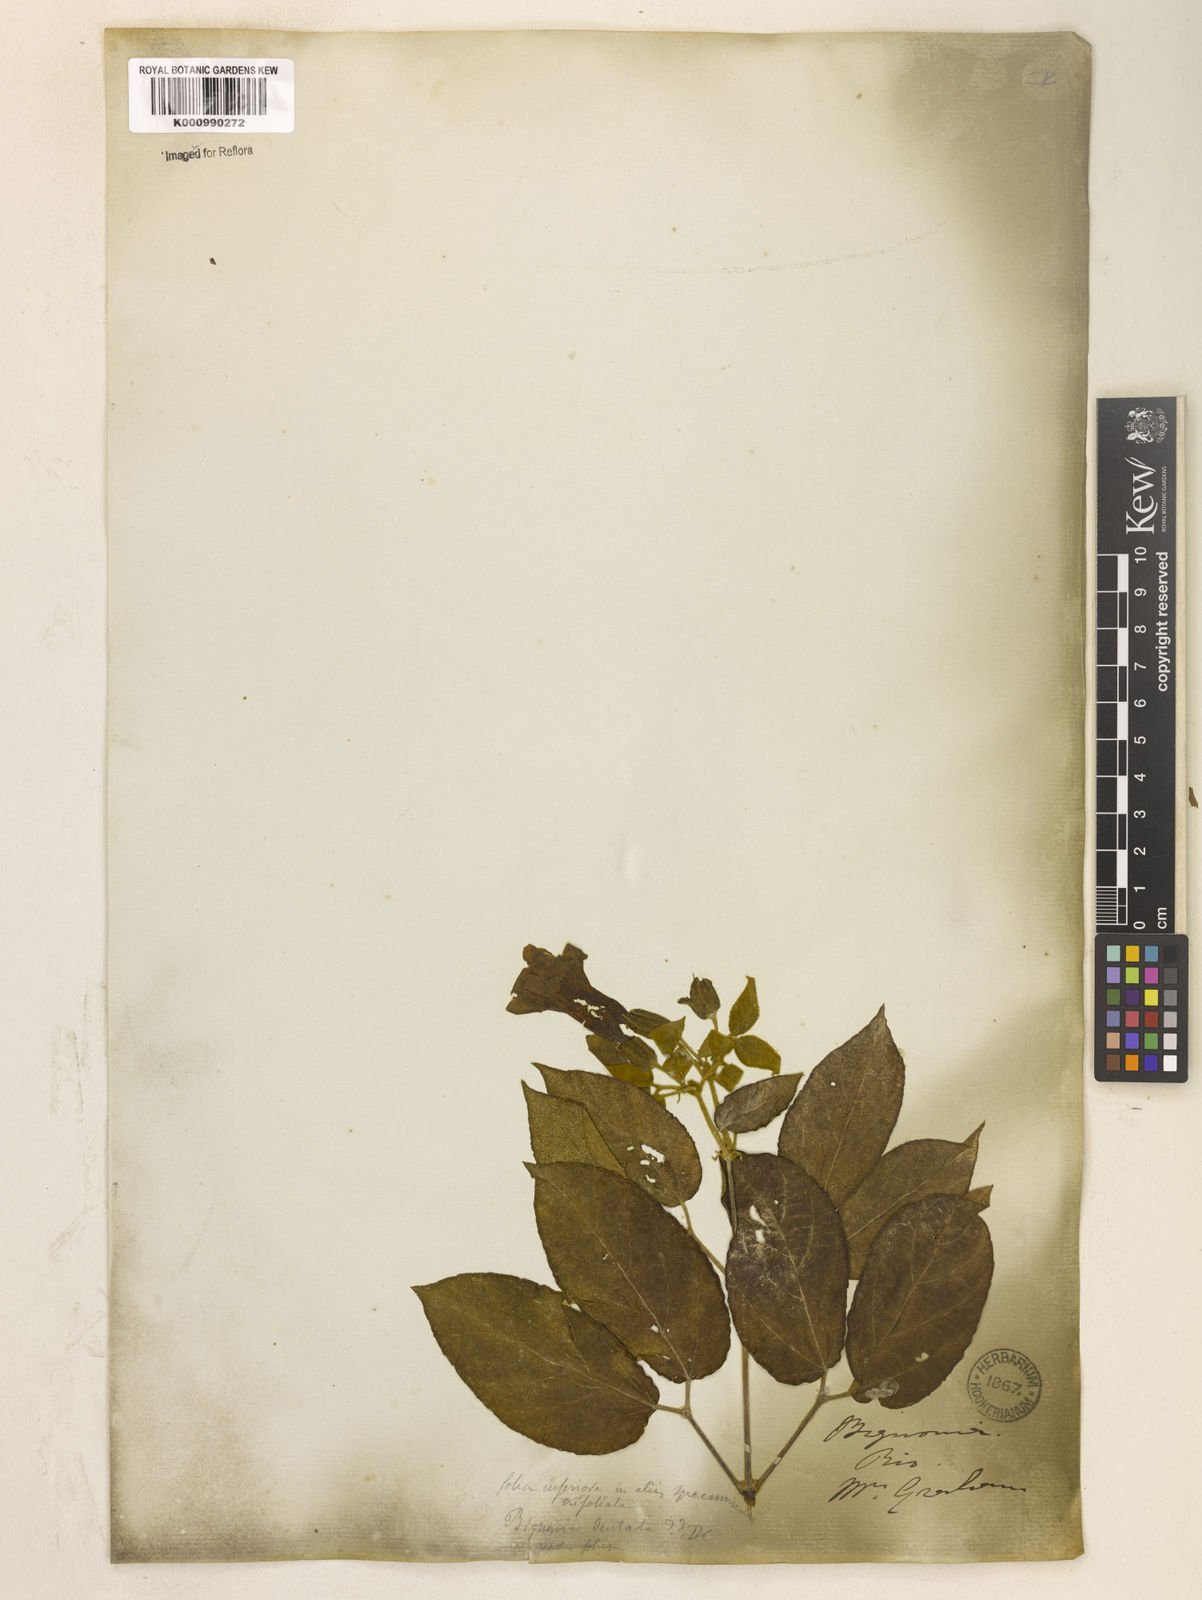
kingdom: Plantae
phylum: Tracheophyta
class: Magnoliopsida
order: Lamiales
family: Bignoniaceae
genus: Stizophyllum
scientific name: Stizophyllum perforatum
